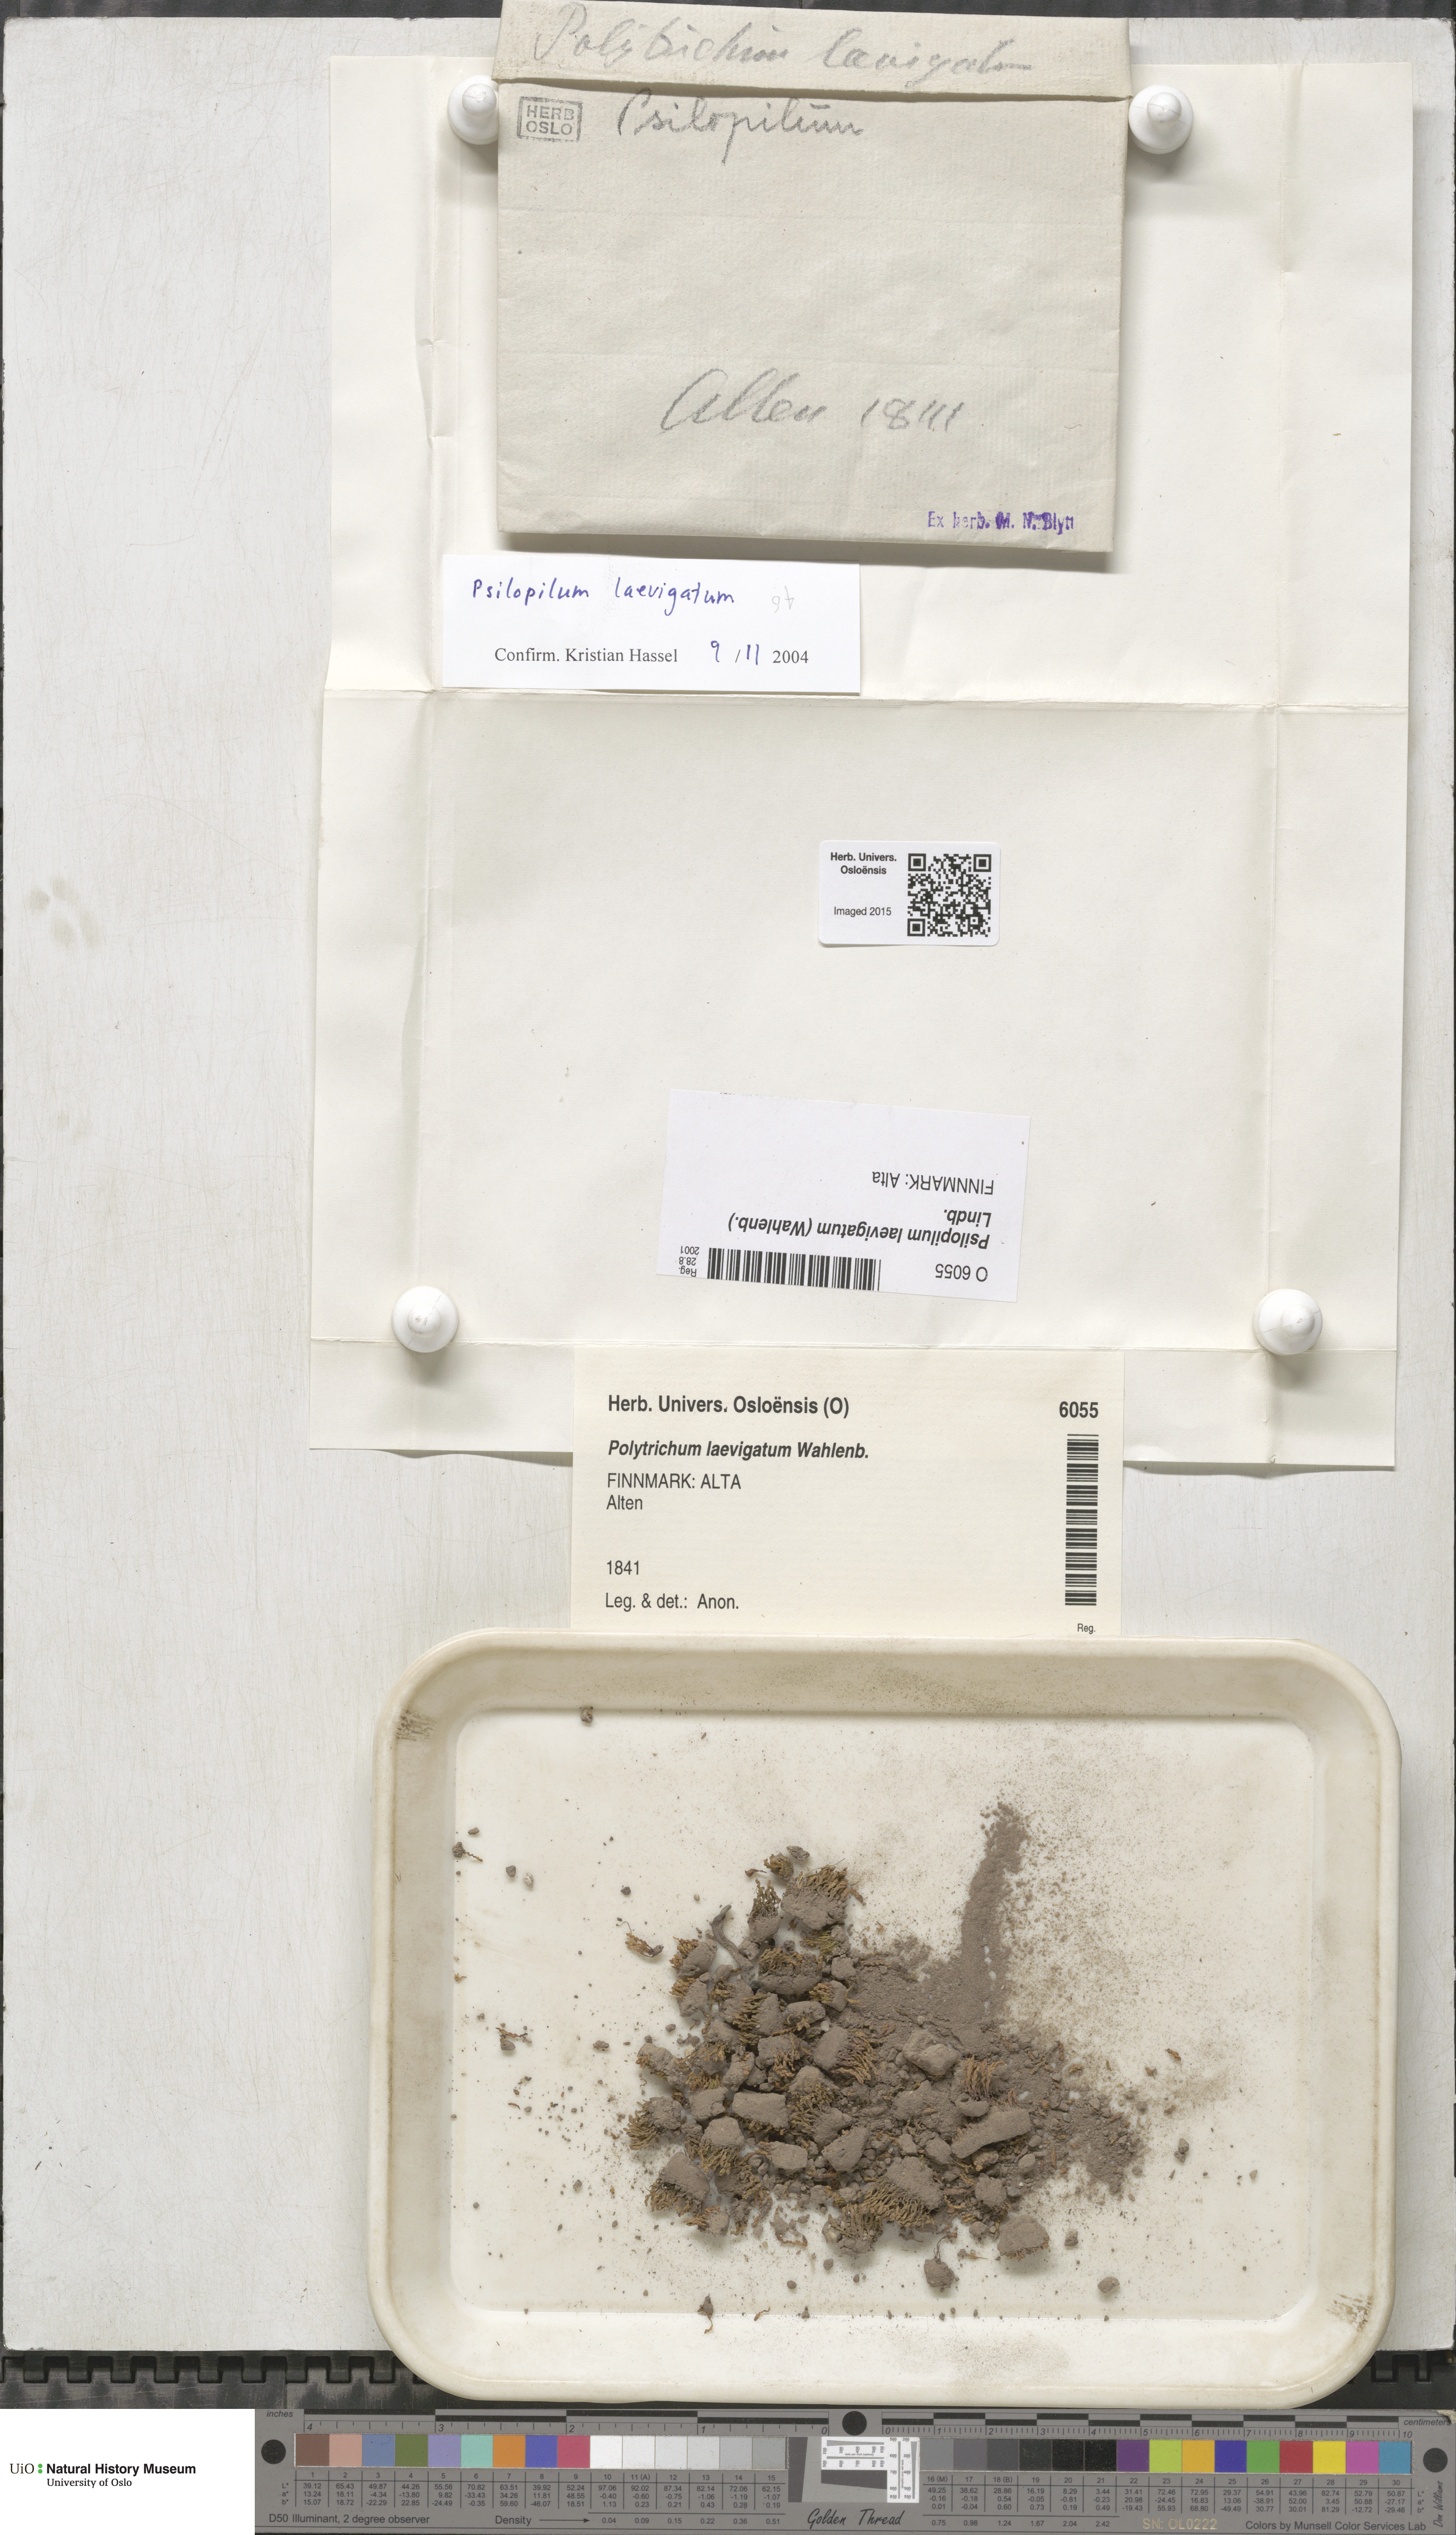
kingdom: Plantae
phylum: Bryophyta
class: Polytrichopsida
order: Polytrichales
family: Polytrichaceae
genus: Psilopilum
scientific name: Psilopilum laevigatum
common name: Large wolverine moss
